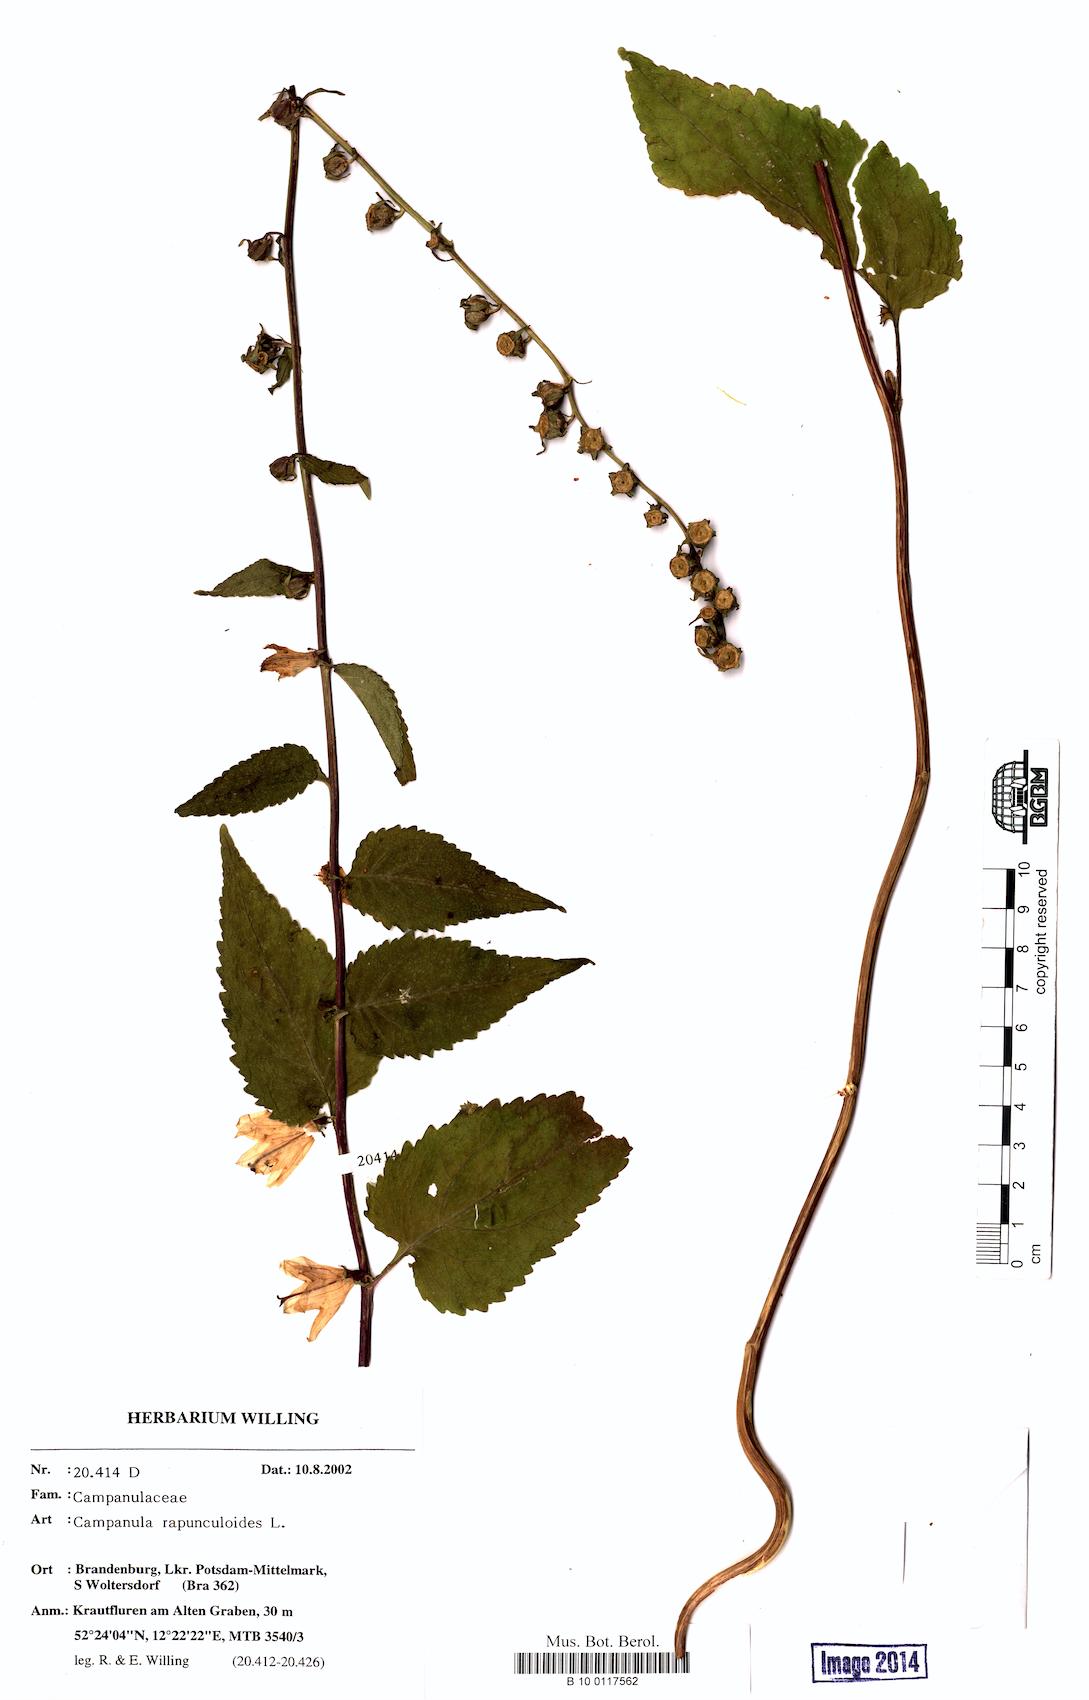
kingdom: Plantae
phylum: Tracheophyta
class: Magnoliopsida
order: Asterales
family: Campanulaceae
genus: Campanula
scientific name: Campanula rapunculoides
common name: Creeping bellflower
